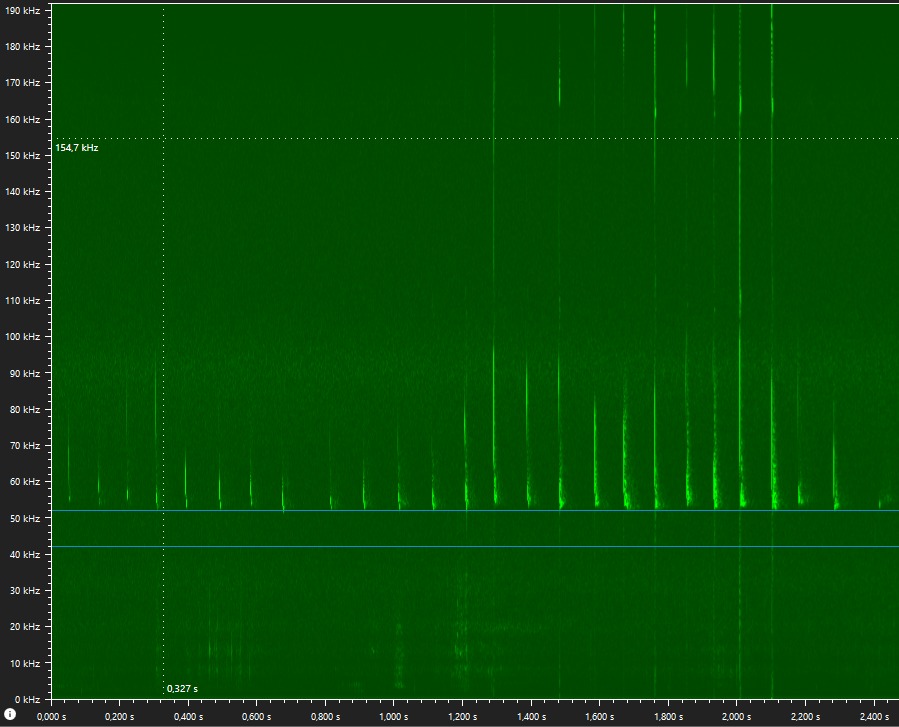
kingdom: Animalia
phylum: Chordata
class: Mammalia
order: Chiroptera
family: Vespertilionidae
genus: Pipistrellus
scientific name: Pipistrellus pygmaeus
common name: Dværgflagermus
